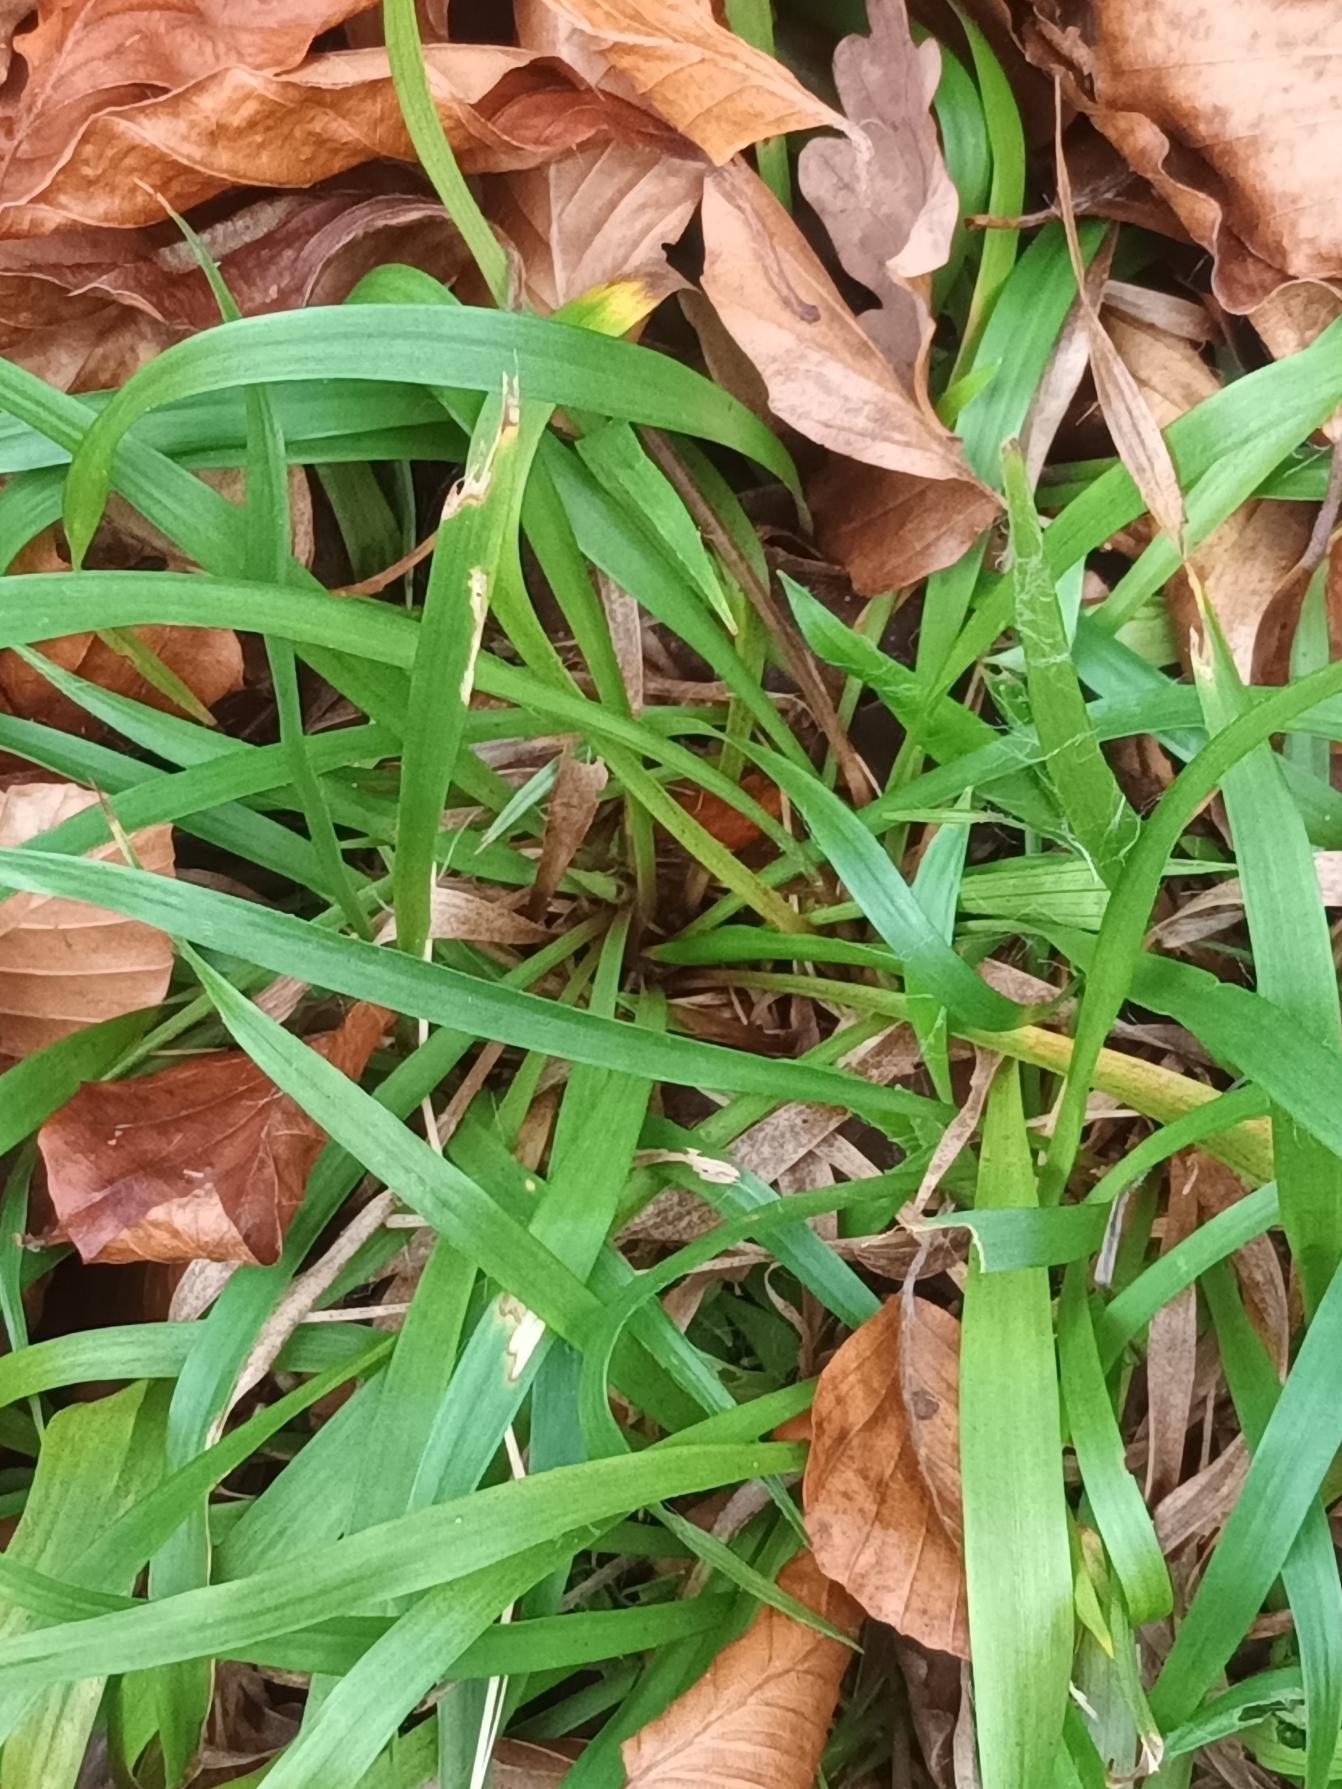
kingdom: Plantae
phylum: Tracheophyta
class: Liliopsida
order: Poales
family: Juncaceae
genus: Luzula
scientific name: Luzula pilosa
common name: Håret frytle
